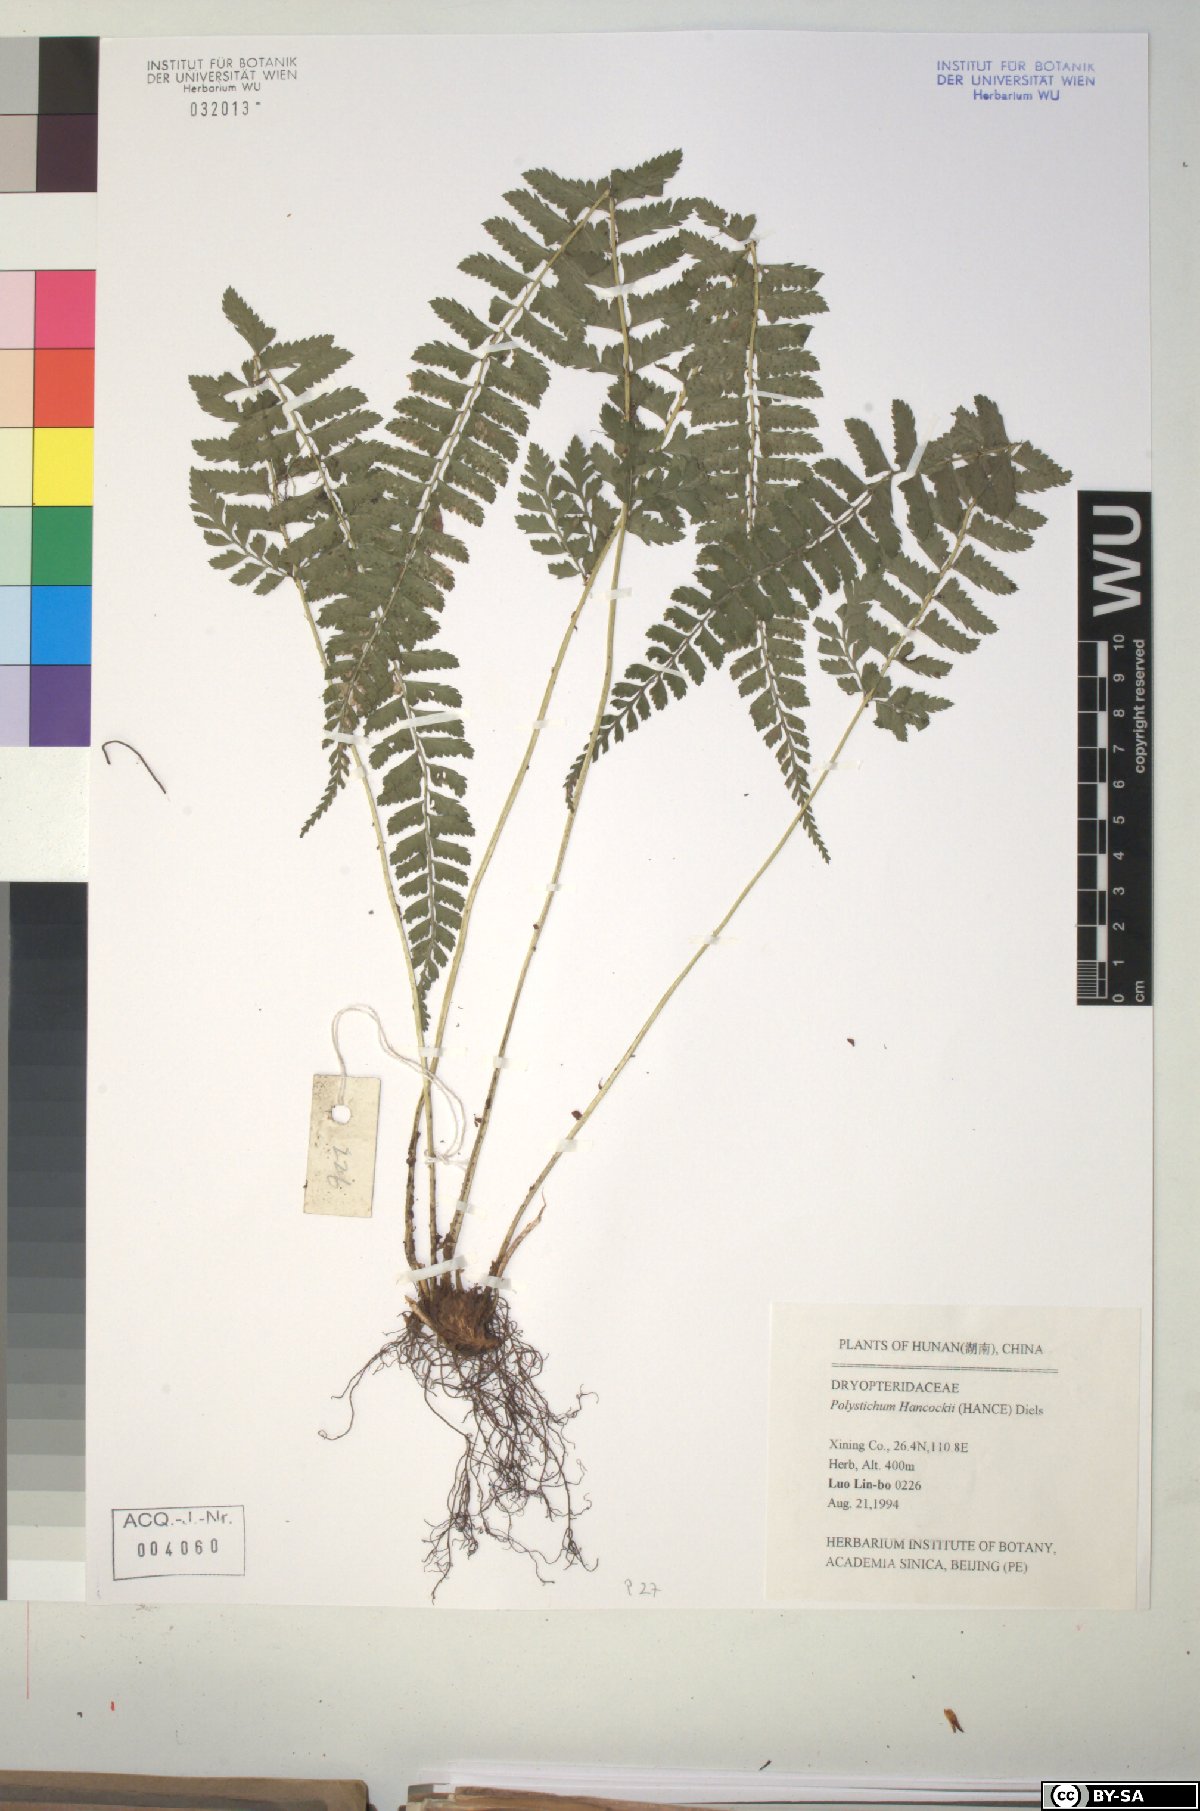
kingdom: Plantae
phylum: Tracheophyta
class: Polypodiopsida
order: Polypodiales
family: Dryopteridaceae
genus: Polystichum
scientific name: Polystichum hancockii
